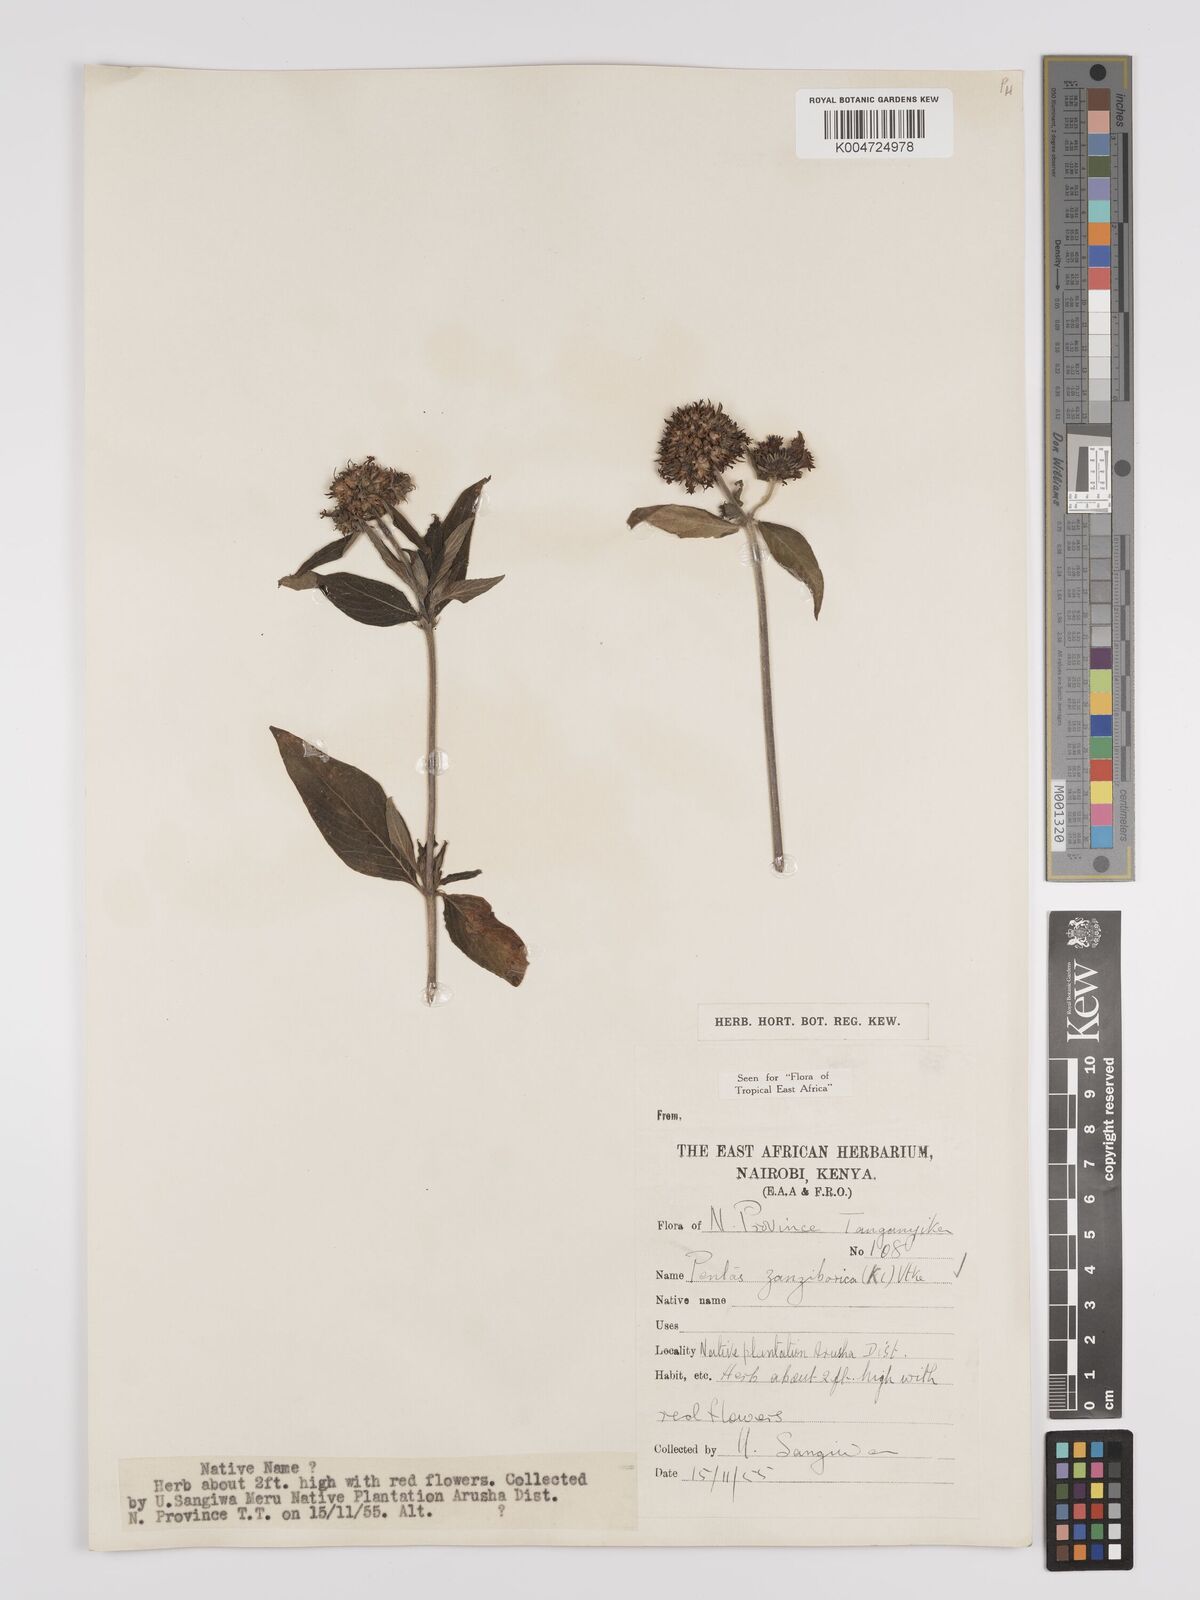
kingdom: Plantae
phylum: Tracheophyta
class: Magnoliopsida
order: Gentianales
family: Rubiaceae
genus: Pentas
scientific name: Pentas zanzibarica
